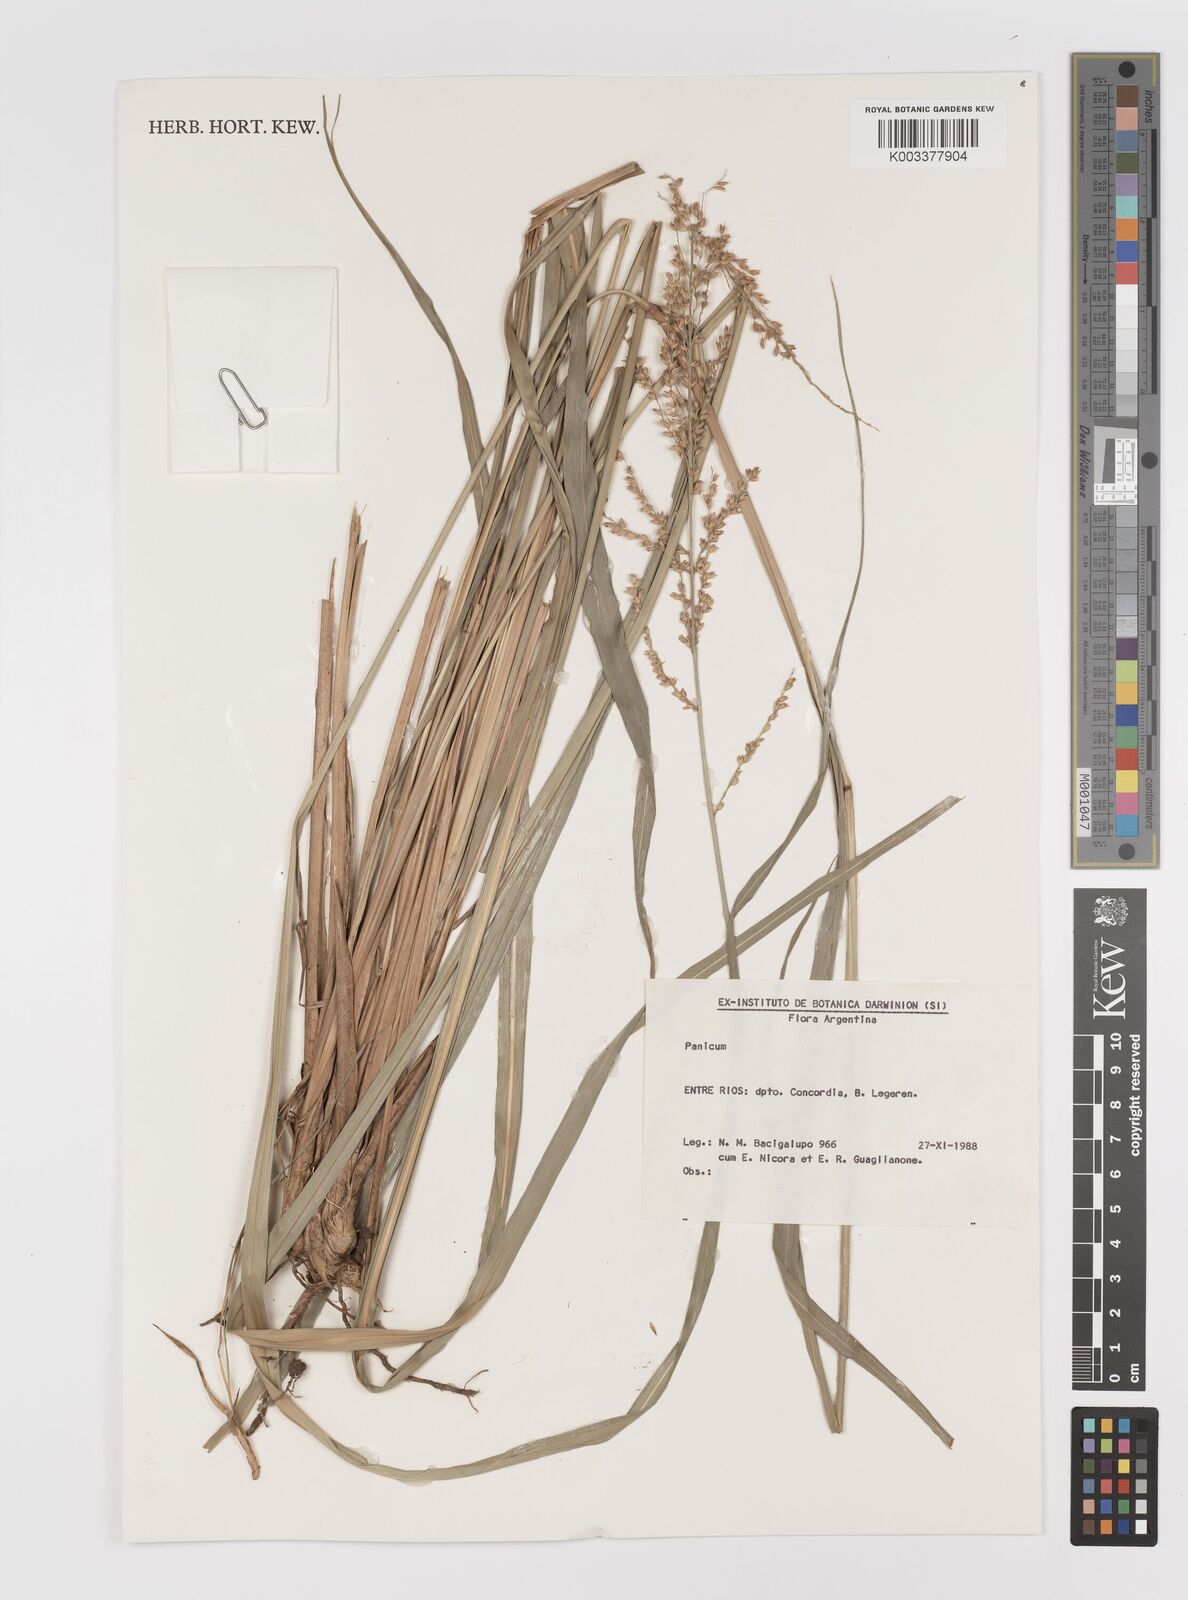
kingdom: Plantae
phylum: Tracheophyta
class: Liliopsida
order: Poales
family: Poaceae
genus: Panicum
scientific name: Panicum
